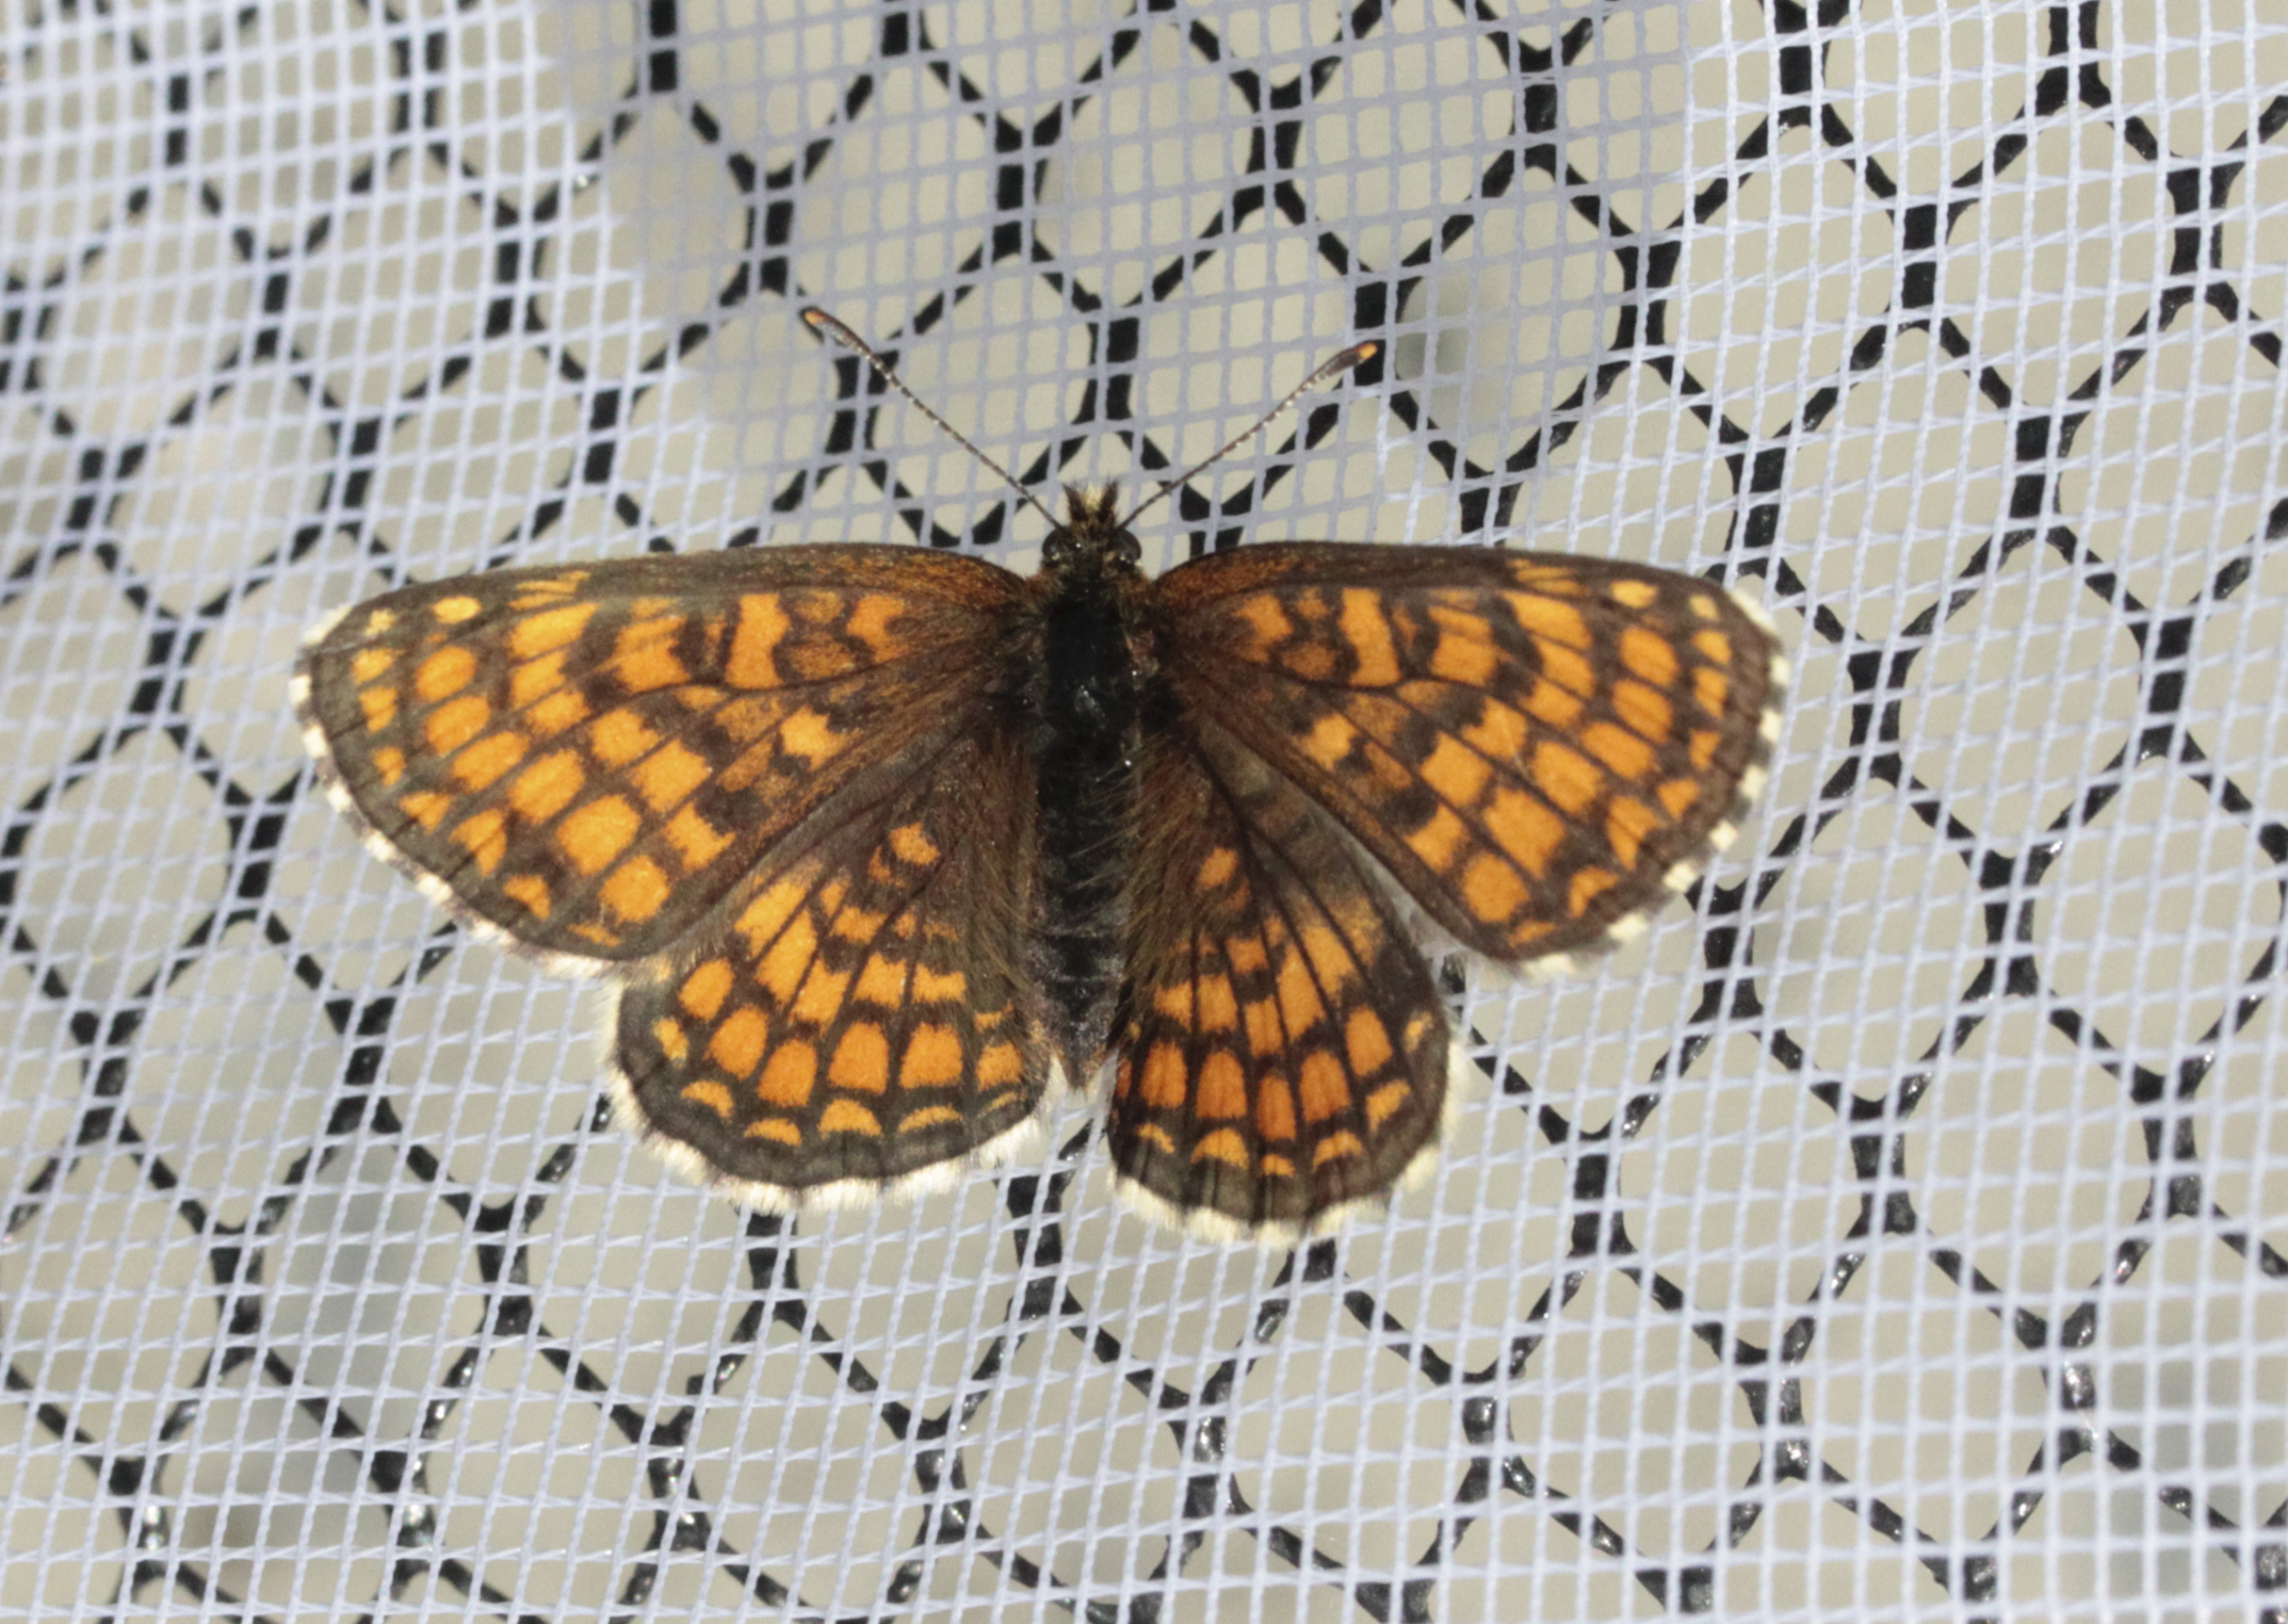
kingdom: Animalia
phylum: Arthropoda
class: Insecta
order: Lepidoptera
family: Nymphalidae
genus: Mellicta
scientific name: Mellicta athalia
